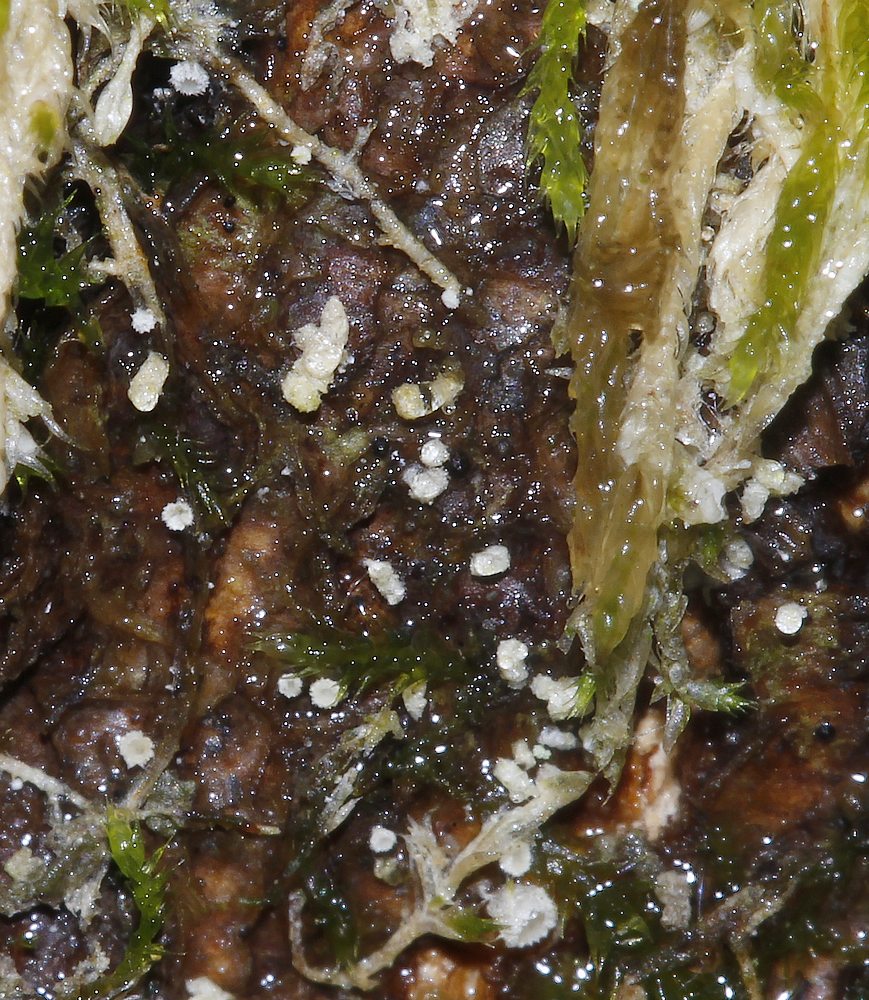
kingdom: Fungi
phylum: Basidiomycota
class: Agaricomycetes
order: Agaricales
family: Chromocyphellaceae
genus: Chromocyphella
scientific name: Chromocyphella muscicola
